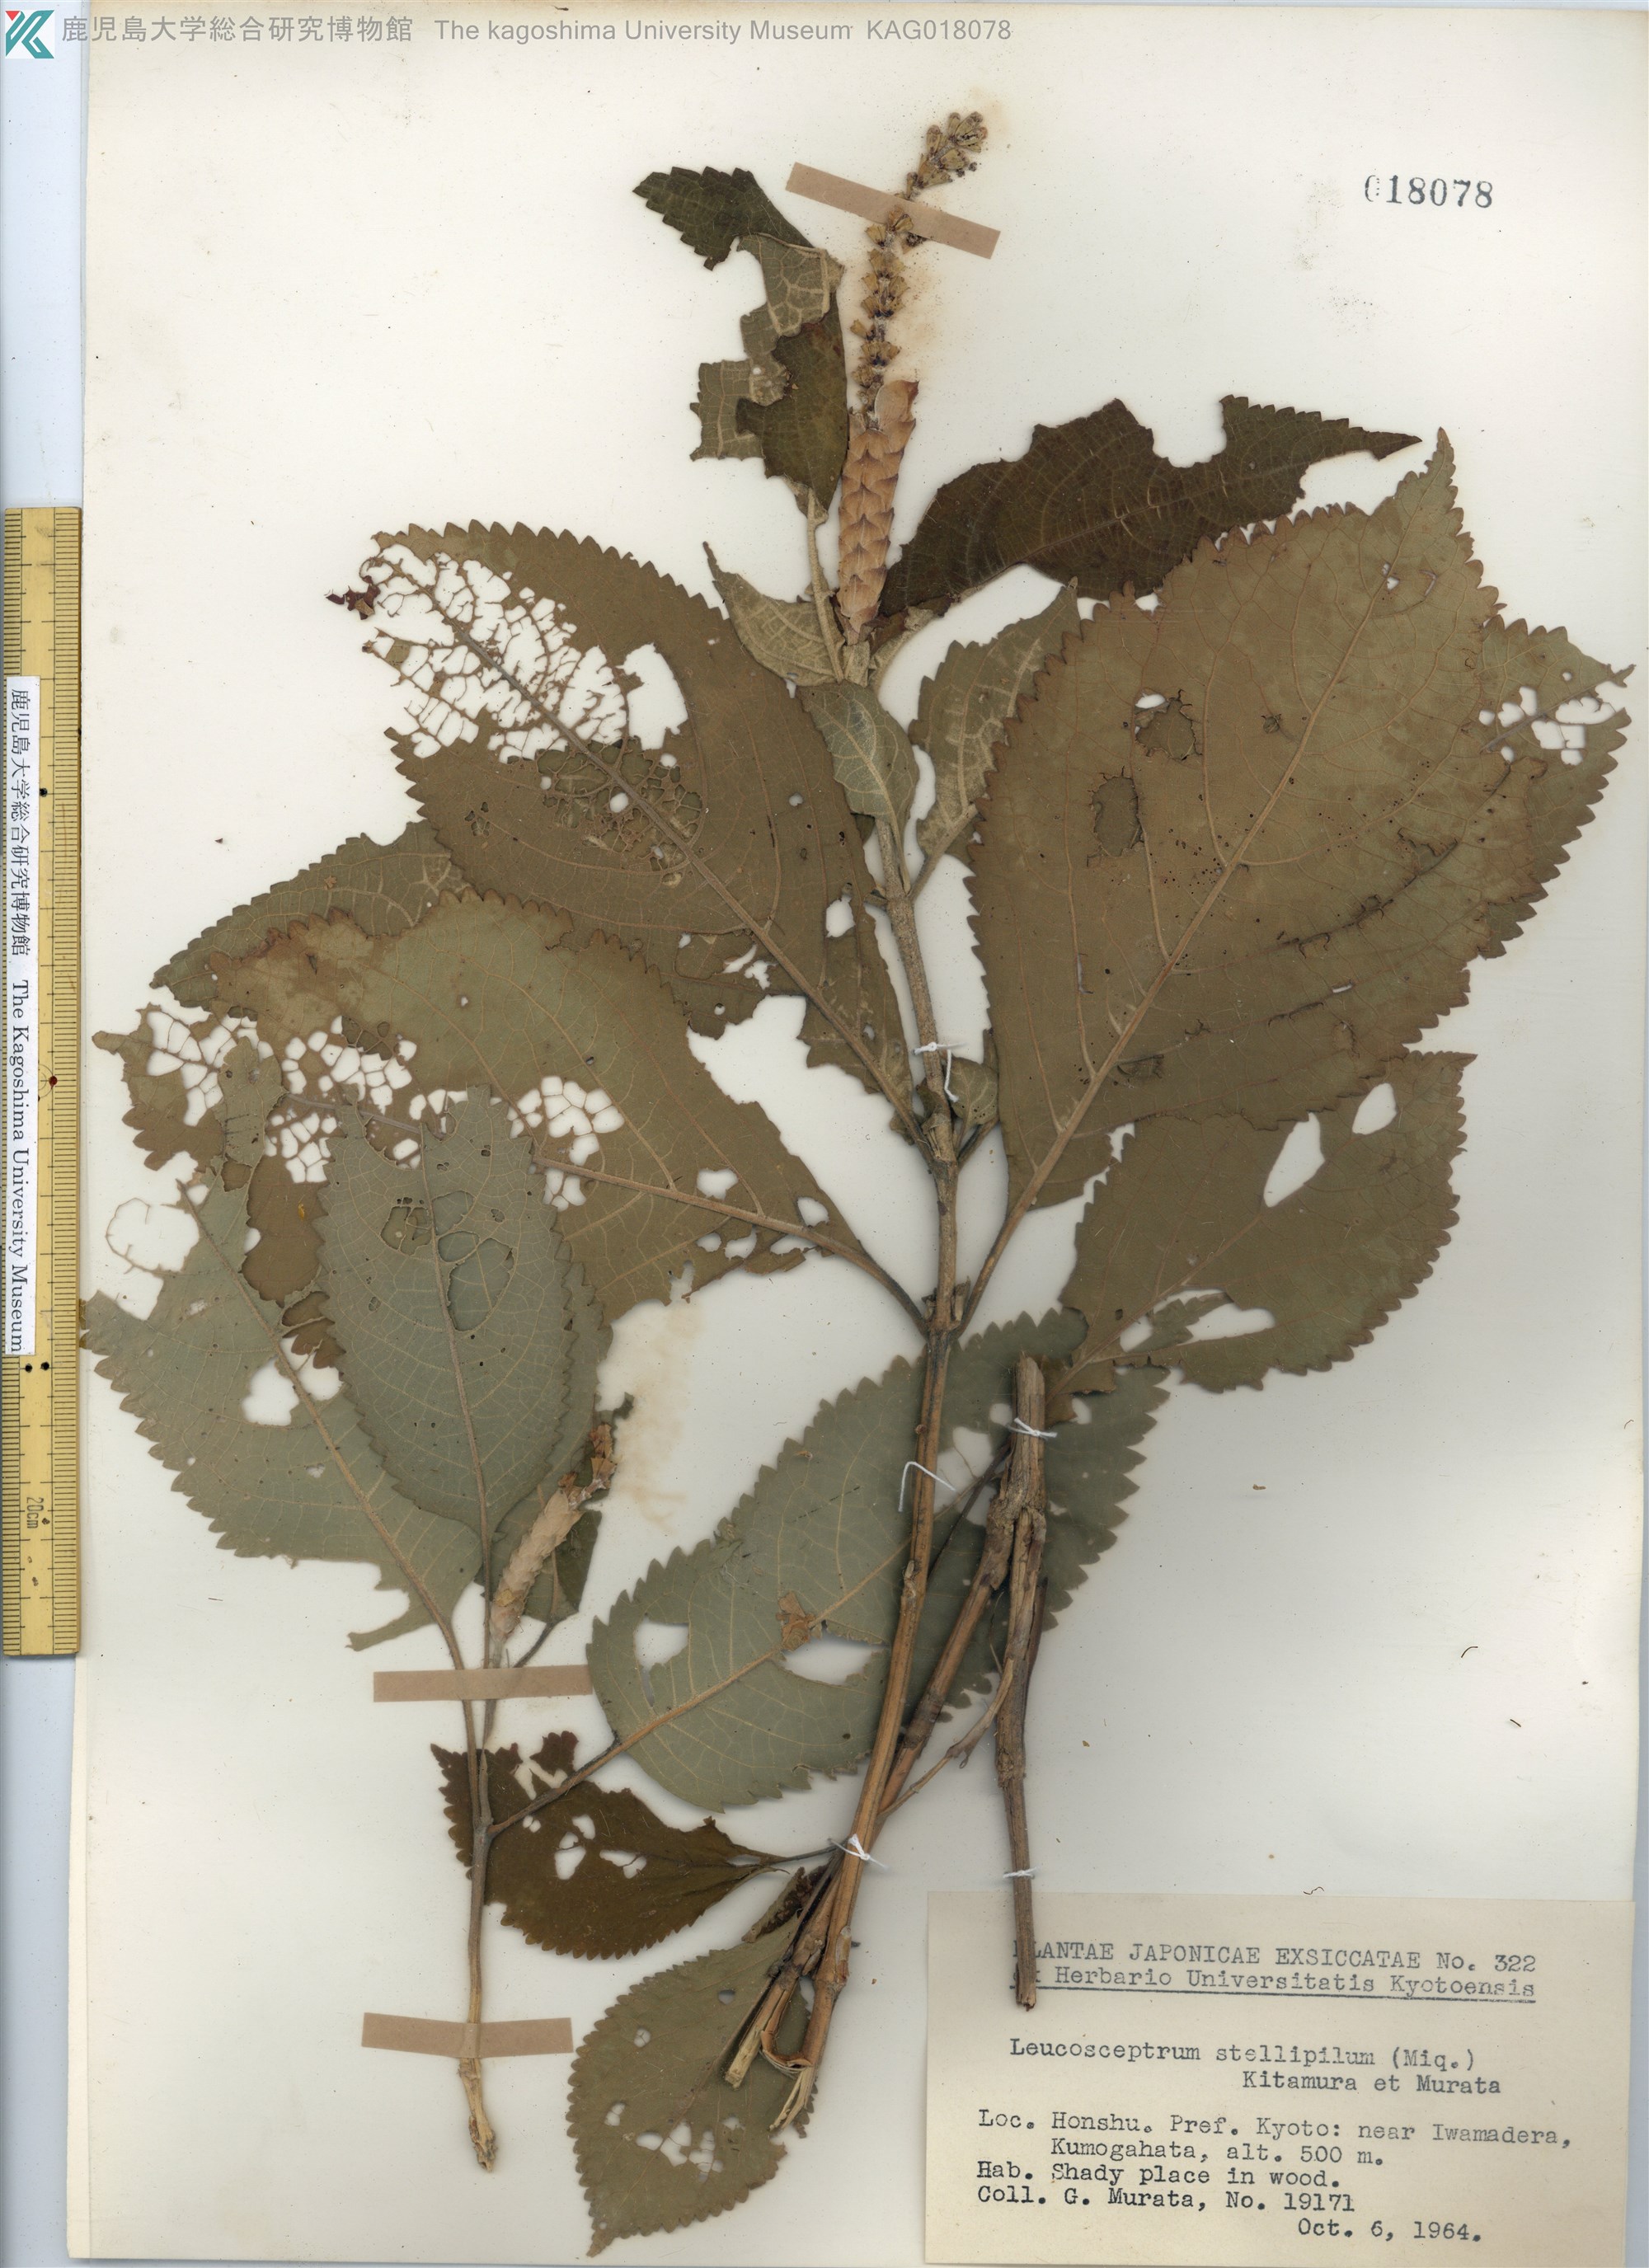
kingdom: Plantae
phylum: Tracheophyta
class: Magnoliopsida
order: Lamiales
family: Lamiaceae
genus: Comanthosphace
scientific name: Comanthosphace stellipila
